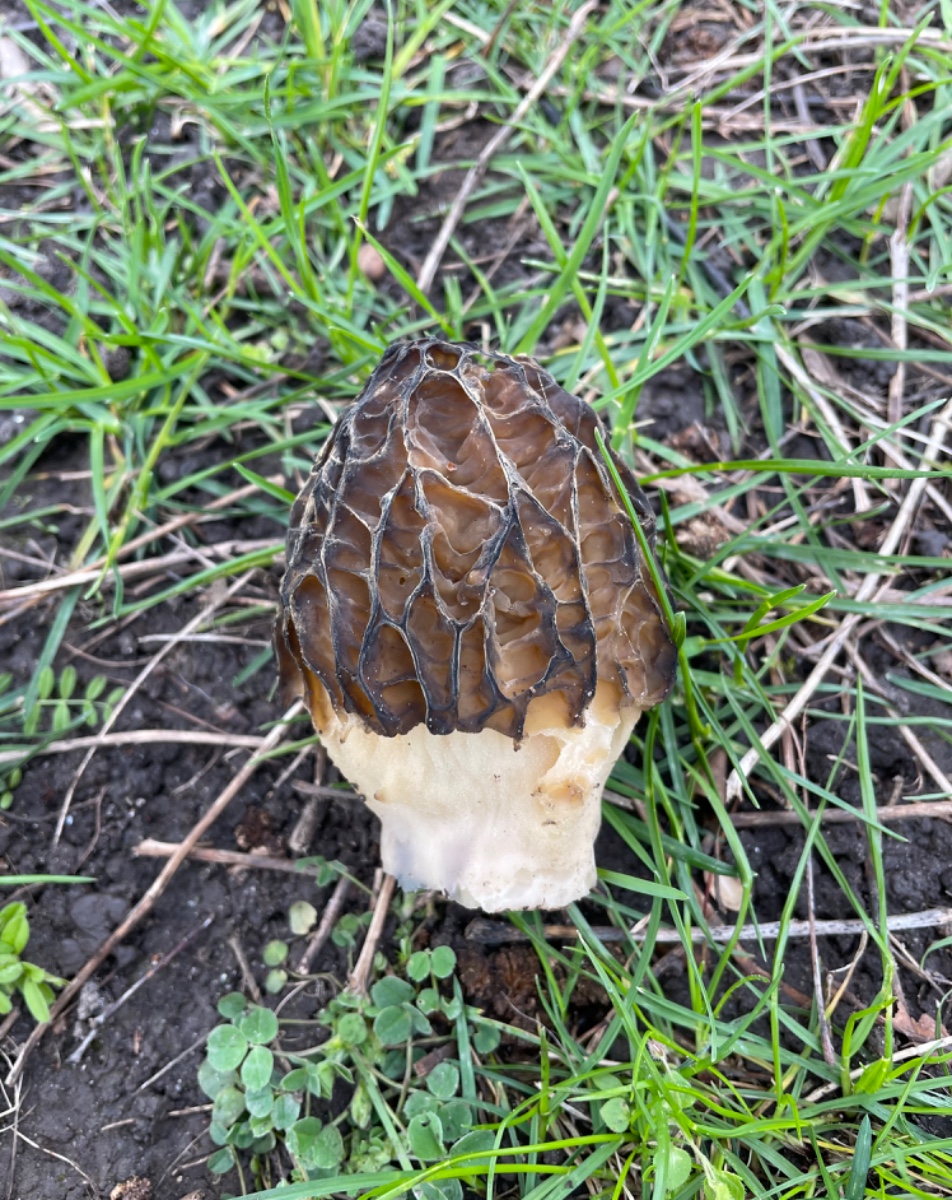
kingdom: Fungi
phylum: Ascomycota
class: Pezizomycetes
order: Pezizales
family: Morchellaceae
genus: Morchella
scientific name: Morchella esculenta
